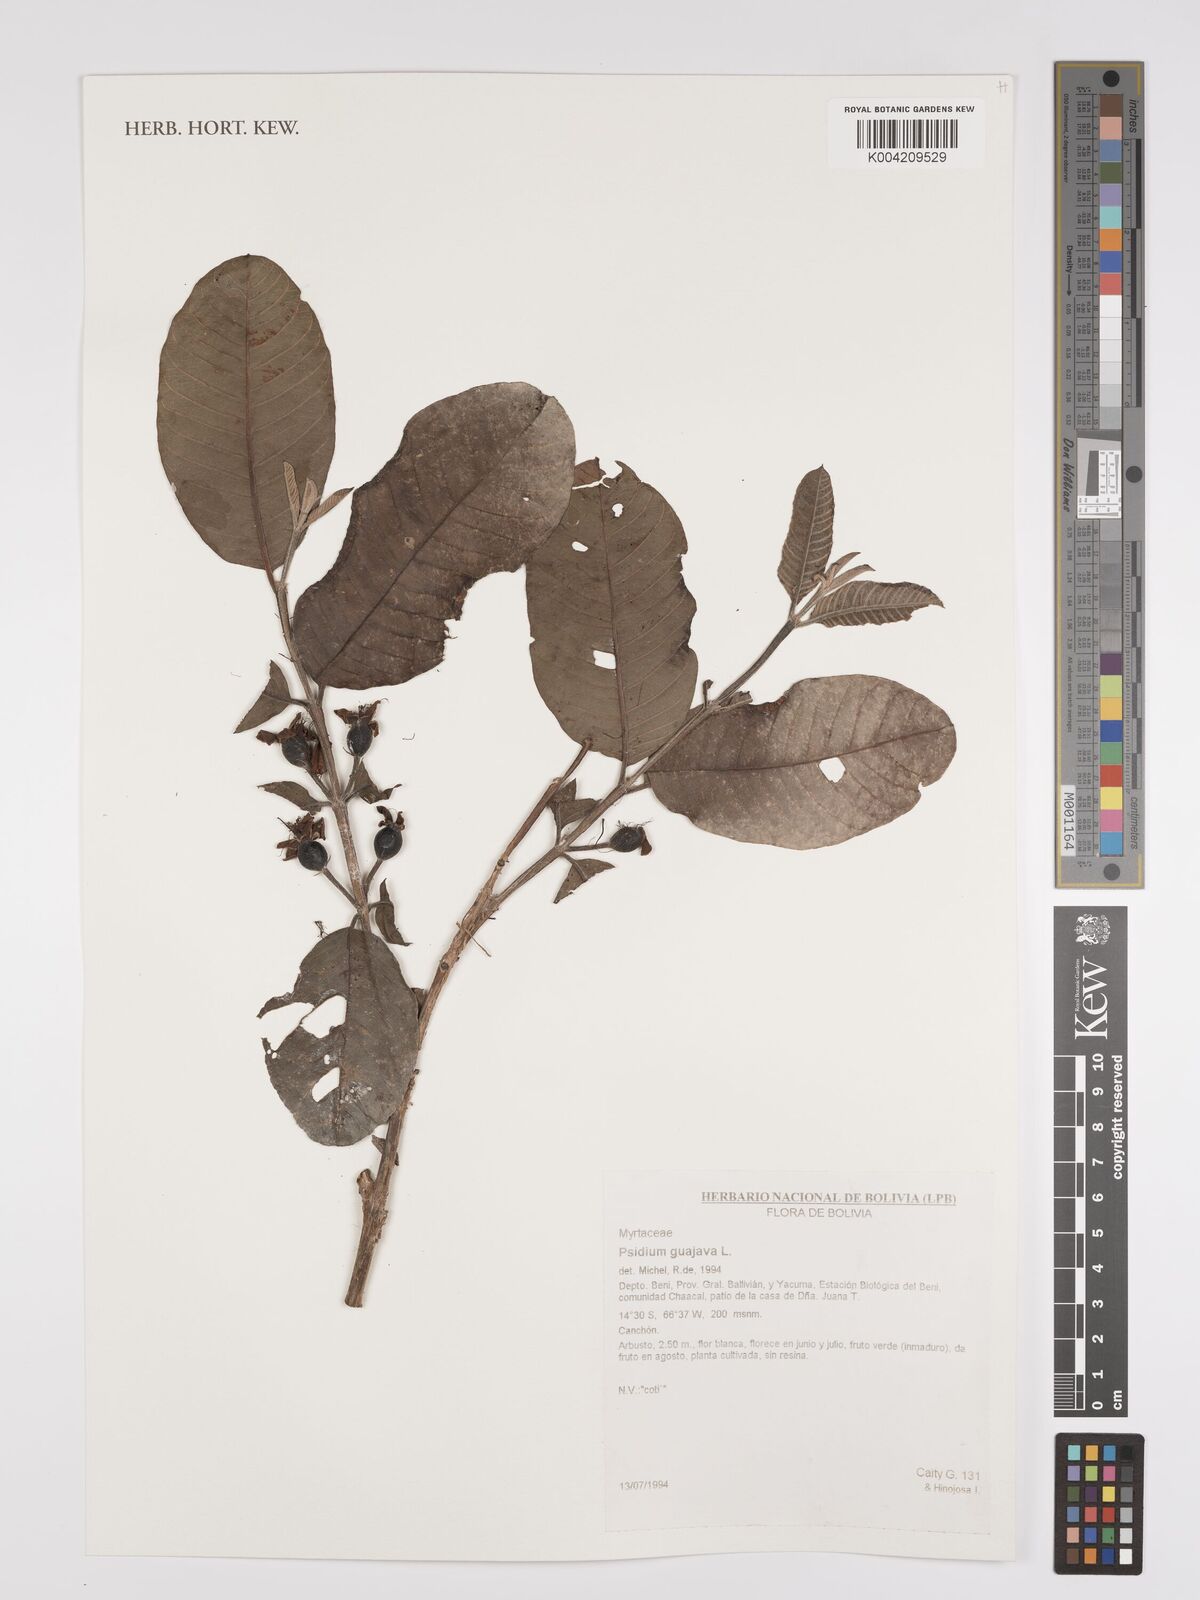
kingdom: Plantae
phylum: Tracheophyta
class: Magnoliopsida
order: Myrtales
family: Myrtaceae
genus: Psidium
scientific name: Psidium guajava
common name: Guava
